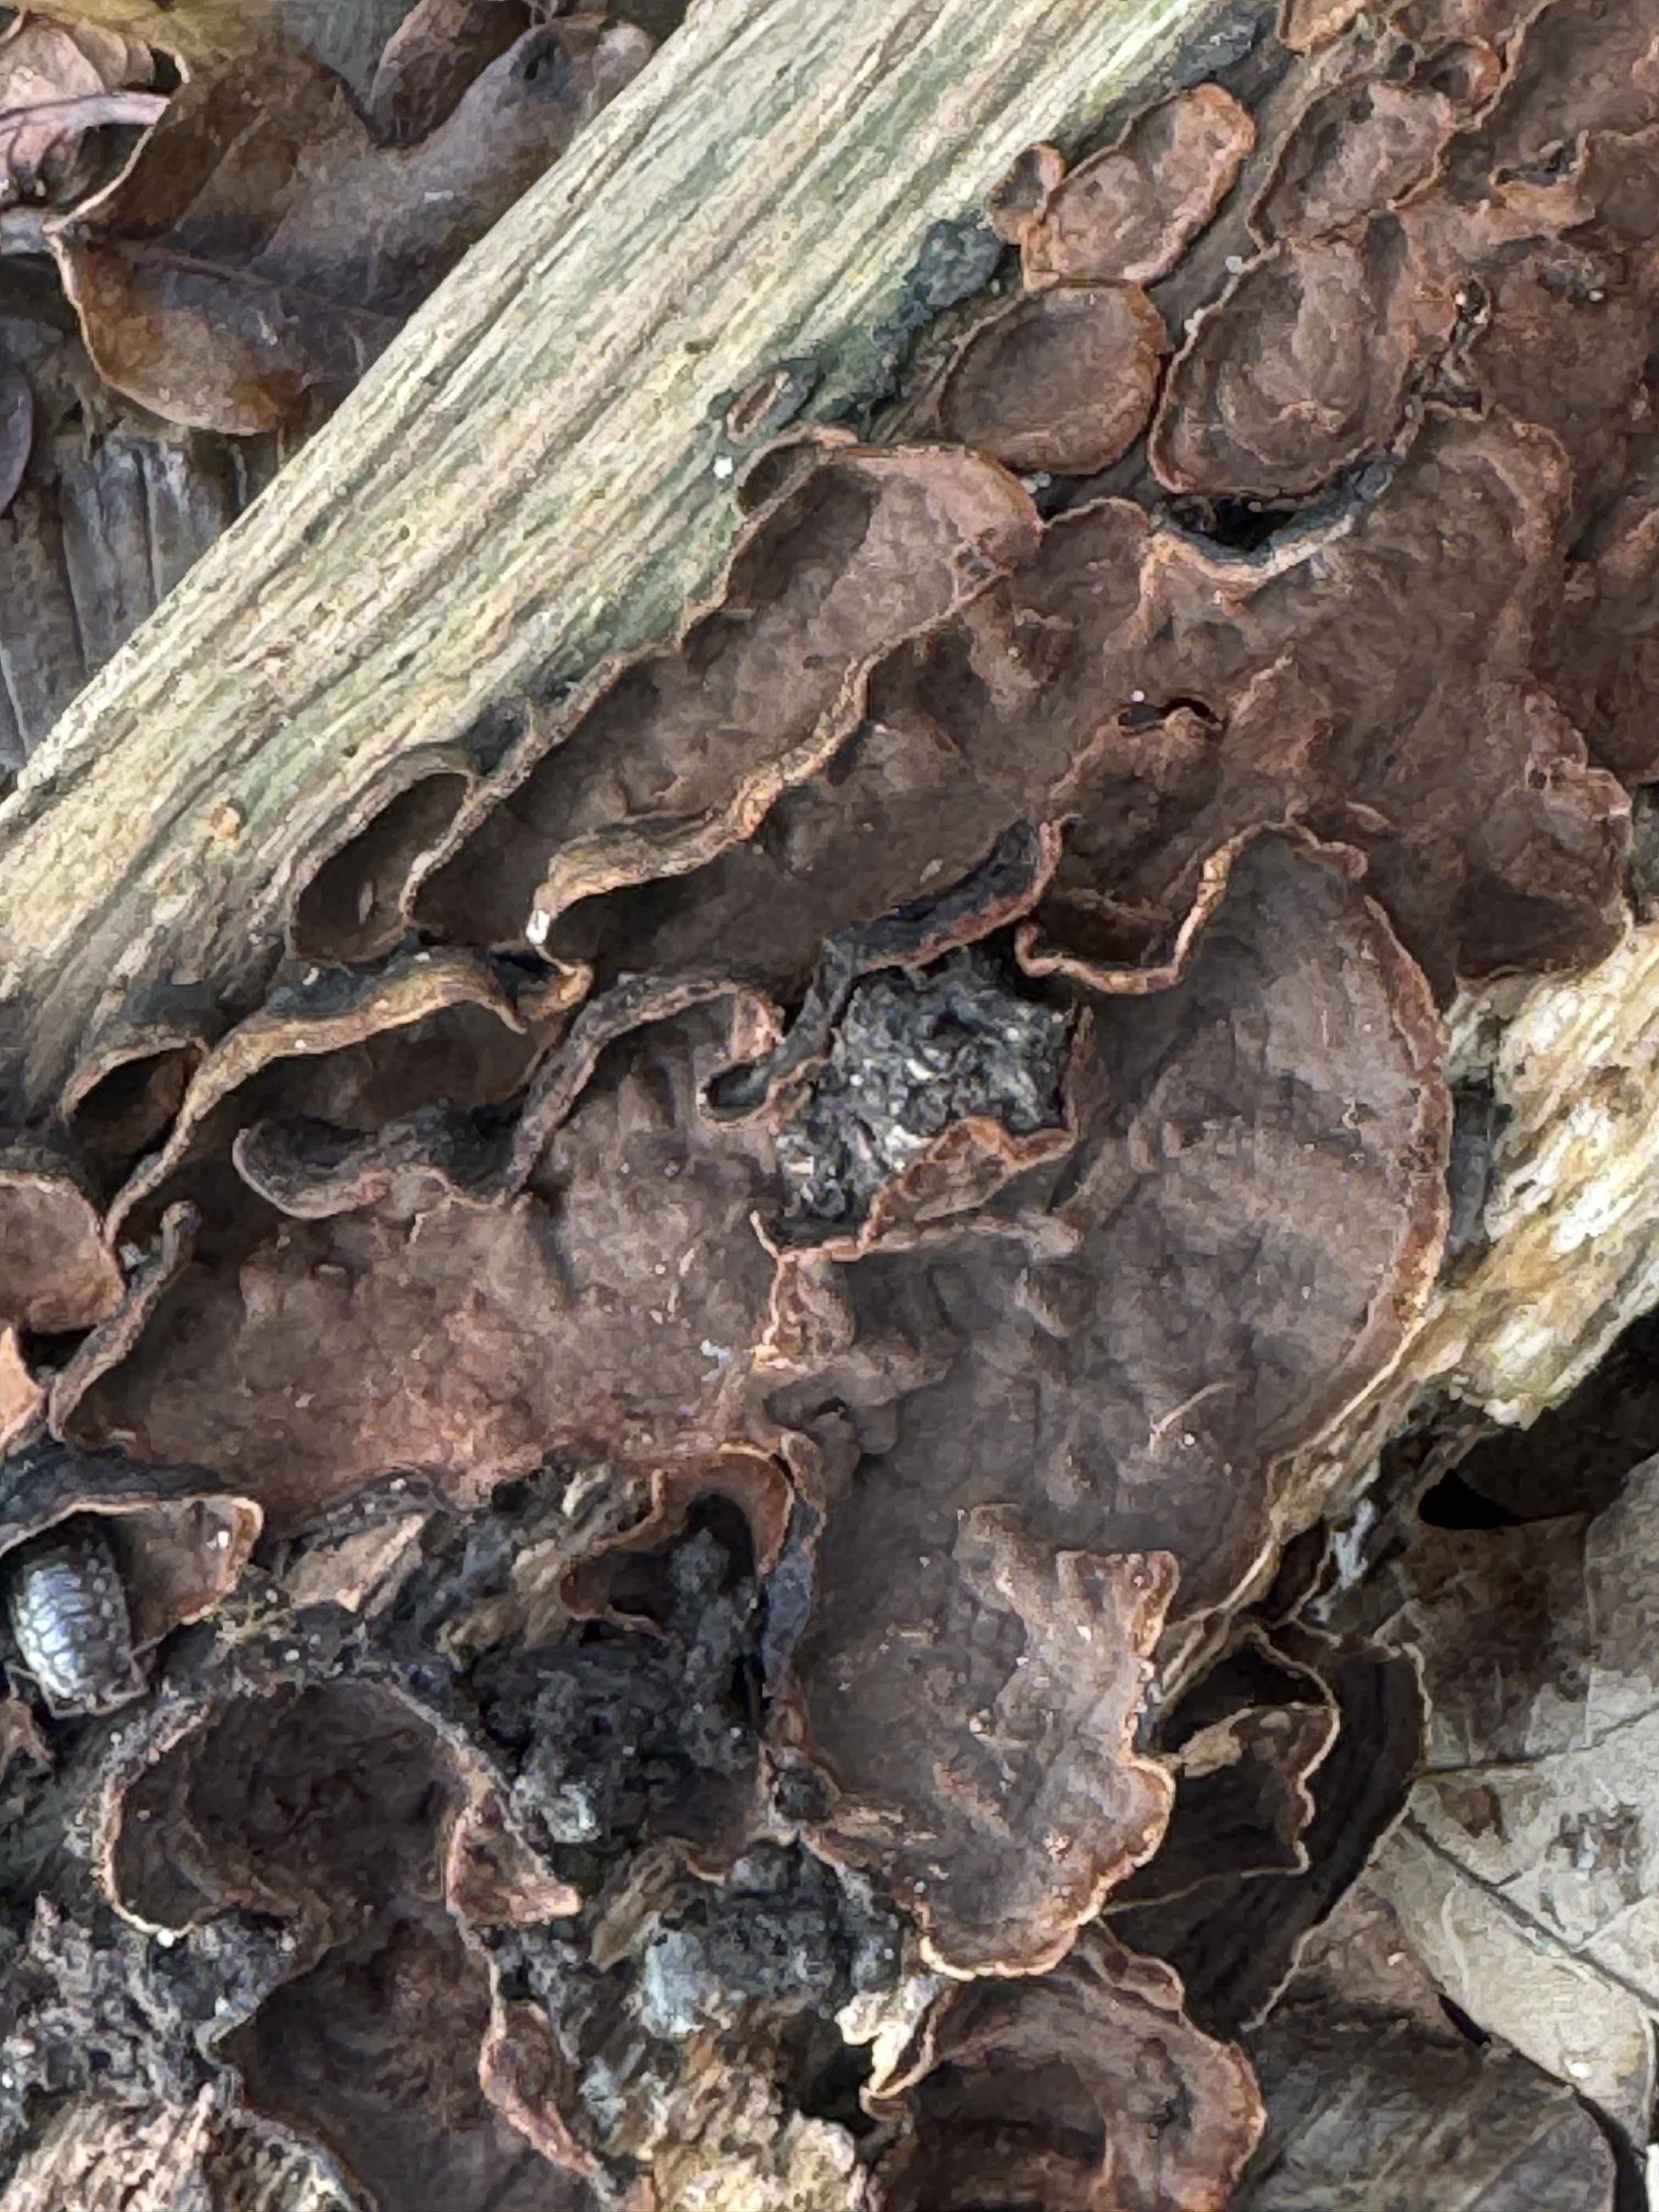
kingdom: Fungi
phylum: Basidiomycota
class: Agaricomycetes
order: Hymenochaetales
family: Hymenochaetaceae
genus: Hymenochaete
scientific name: Hymenochaete rubiginosa
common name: stiv ruslædersvamp
